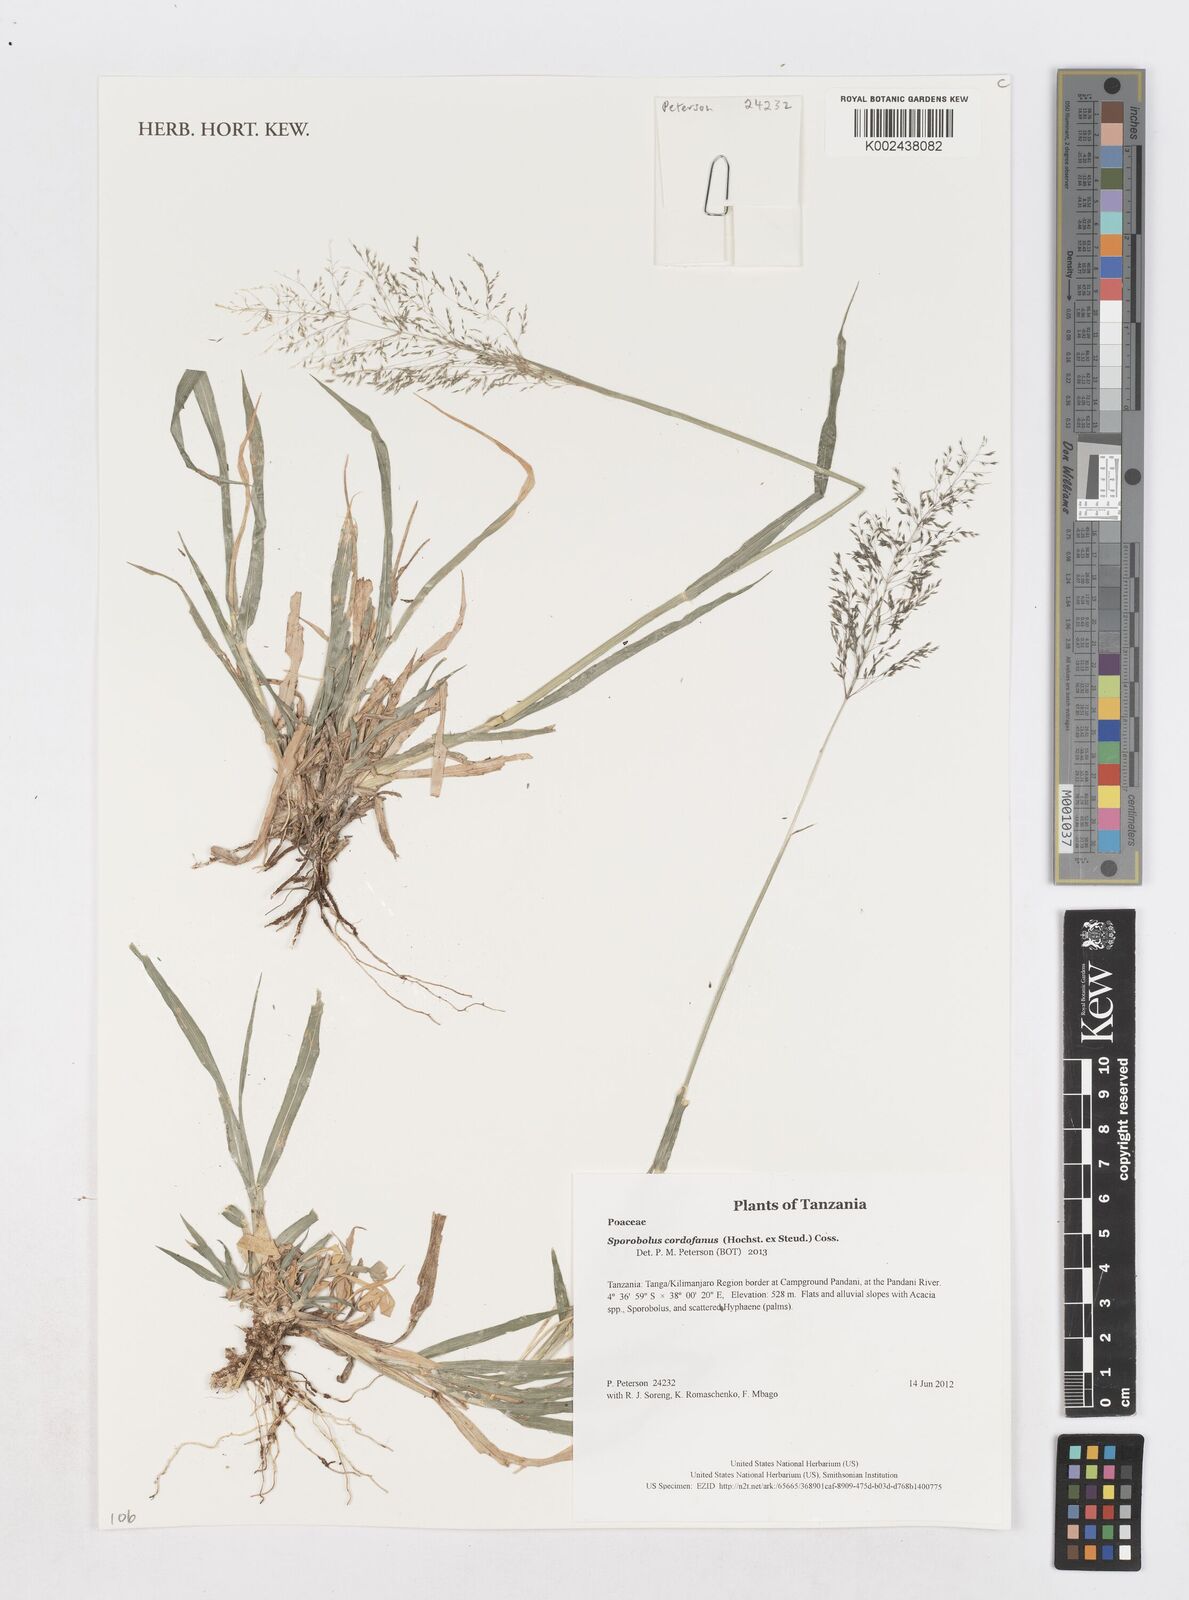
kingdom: Plantae
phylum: Tracheophyta
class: Liliopsida
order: Poales
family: Poaceae
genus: Sporobolus
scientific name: Sporobolus cordofanus
